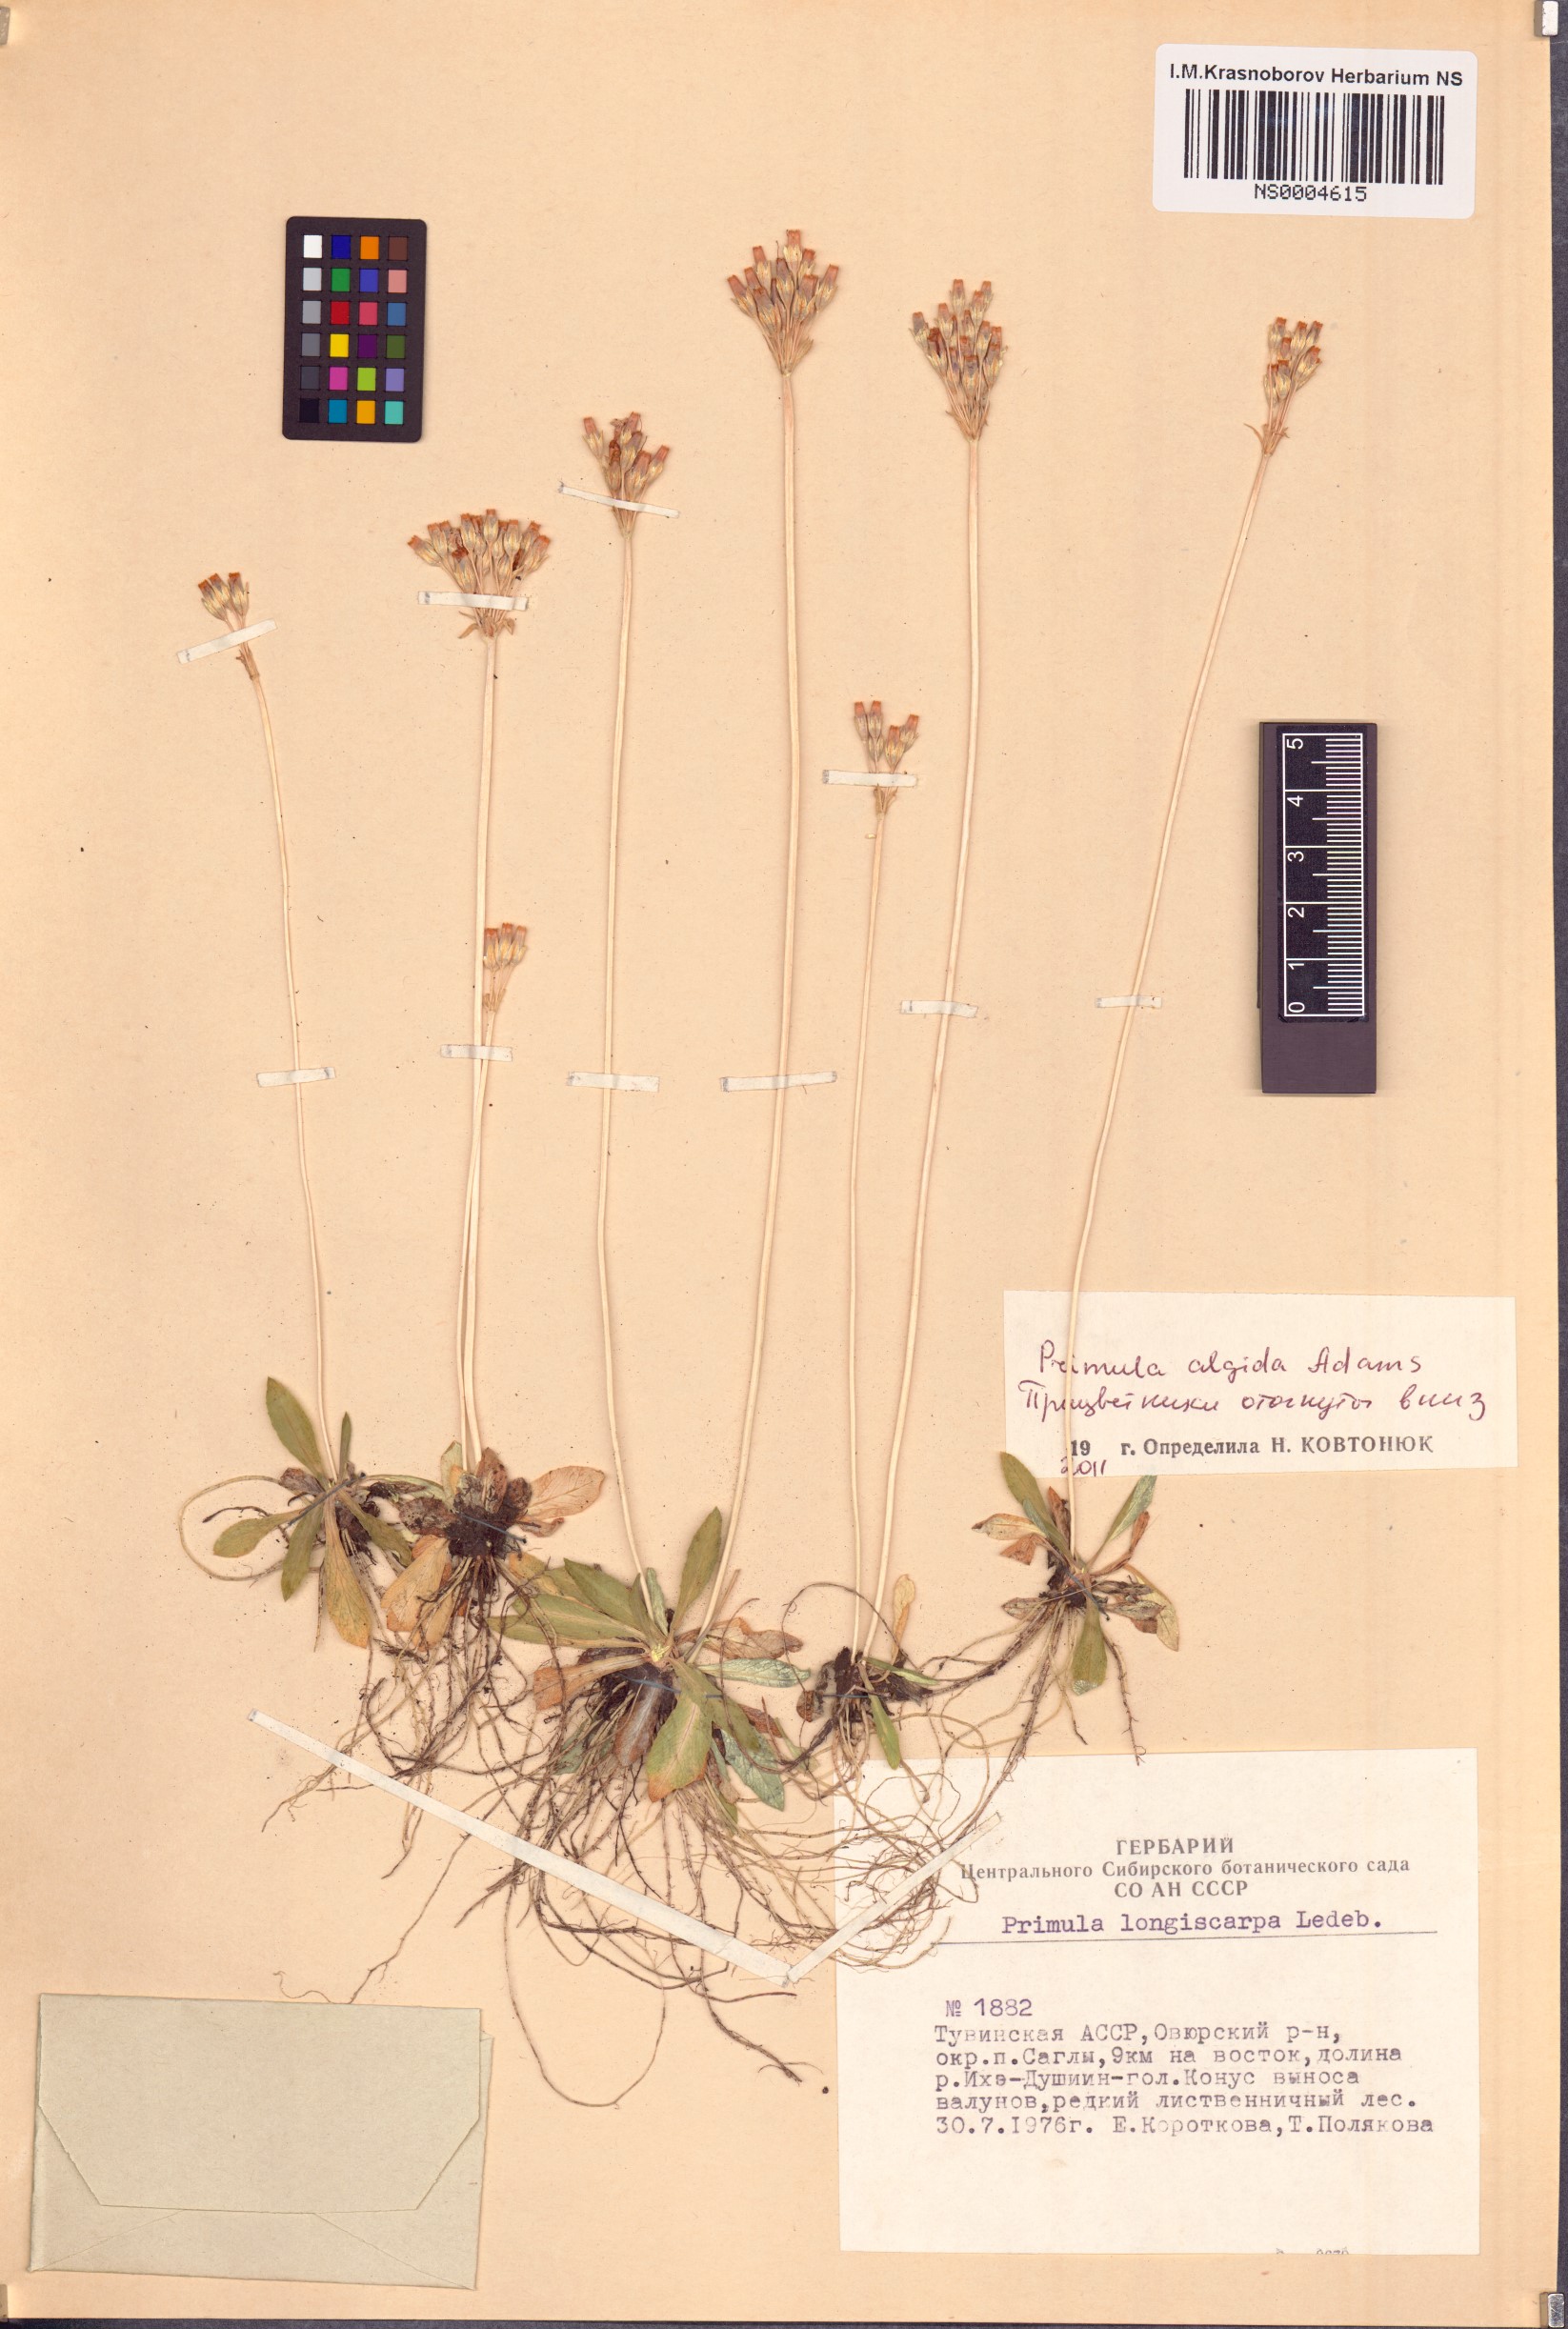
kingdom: Plantae
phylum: Tracheophyta
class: Magnoliopsida
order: Ericales
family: Primulaceae
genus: Primula
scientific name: Primula algida
